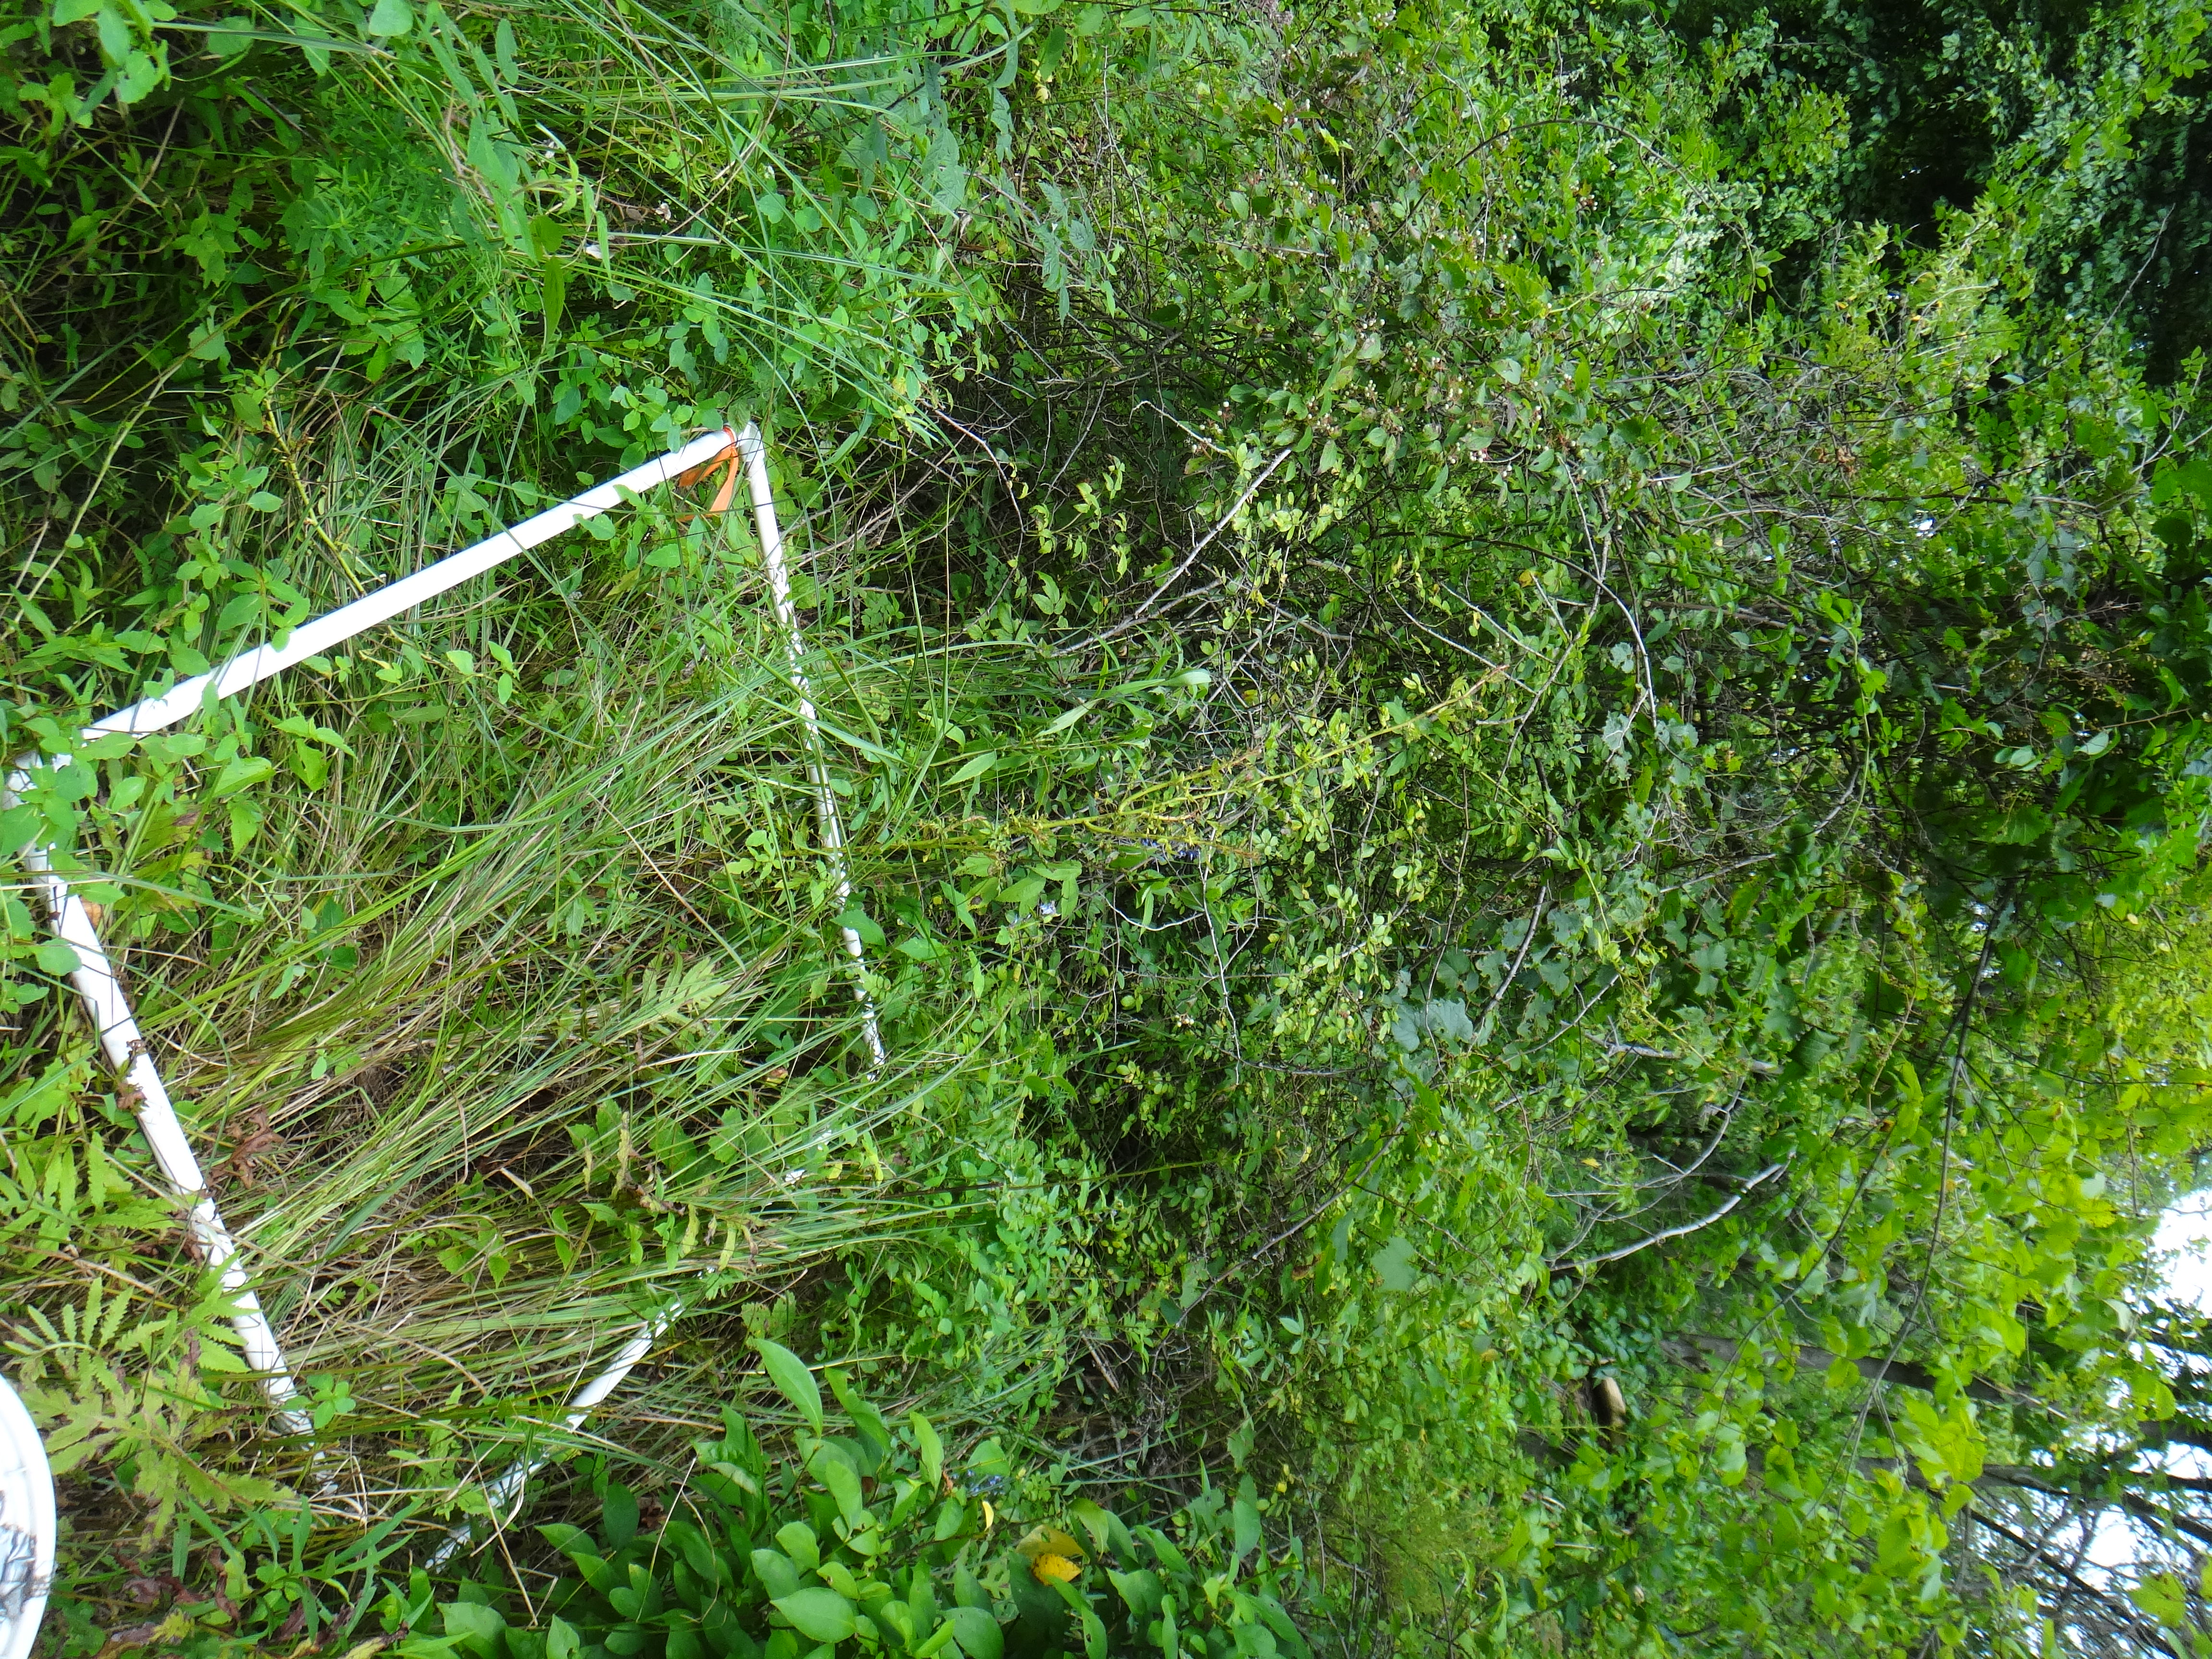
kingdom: Plantae
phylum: Tracheophyta
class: Liliopsida
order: Poales
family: Cyperaceae
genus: Carex
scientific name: Carex stricta
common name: Hummock sedge
